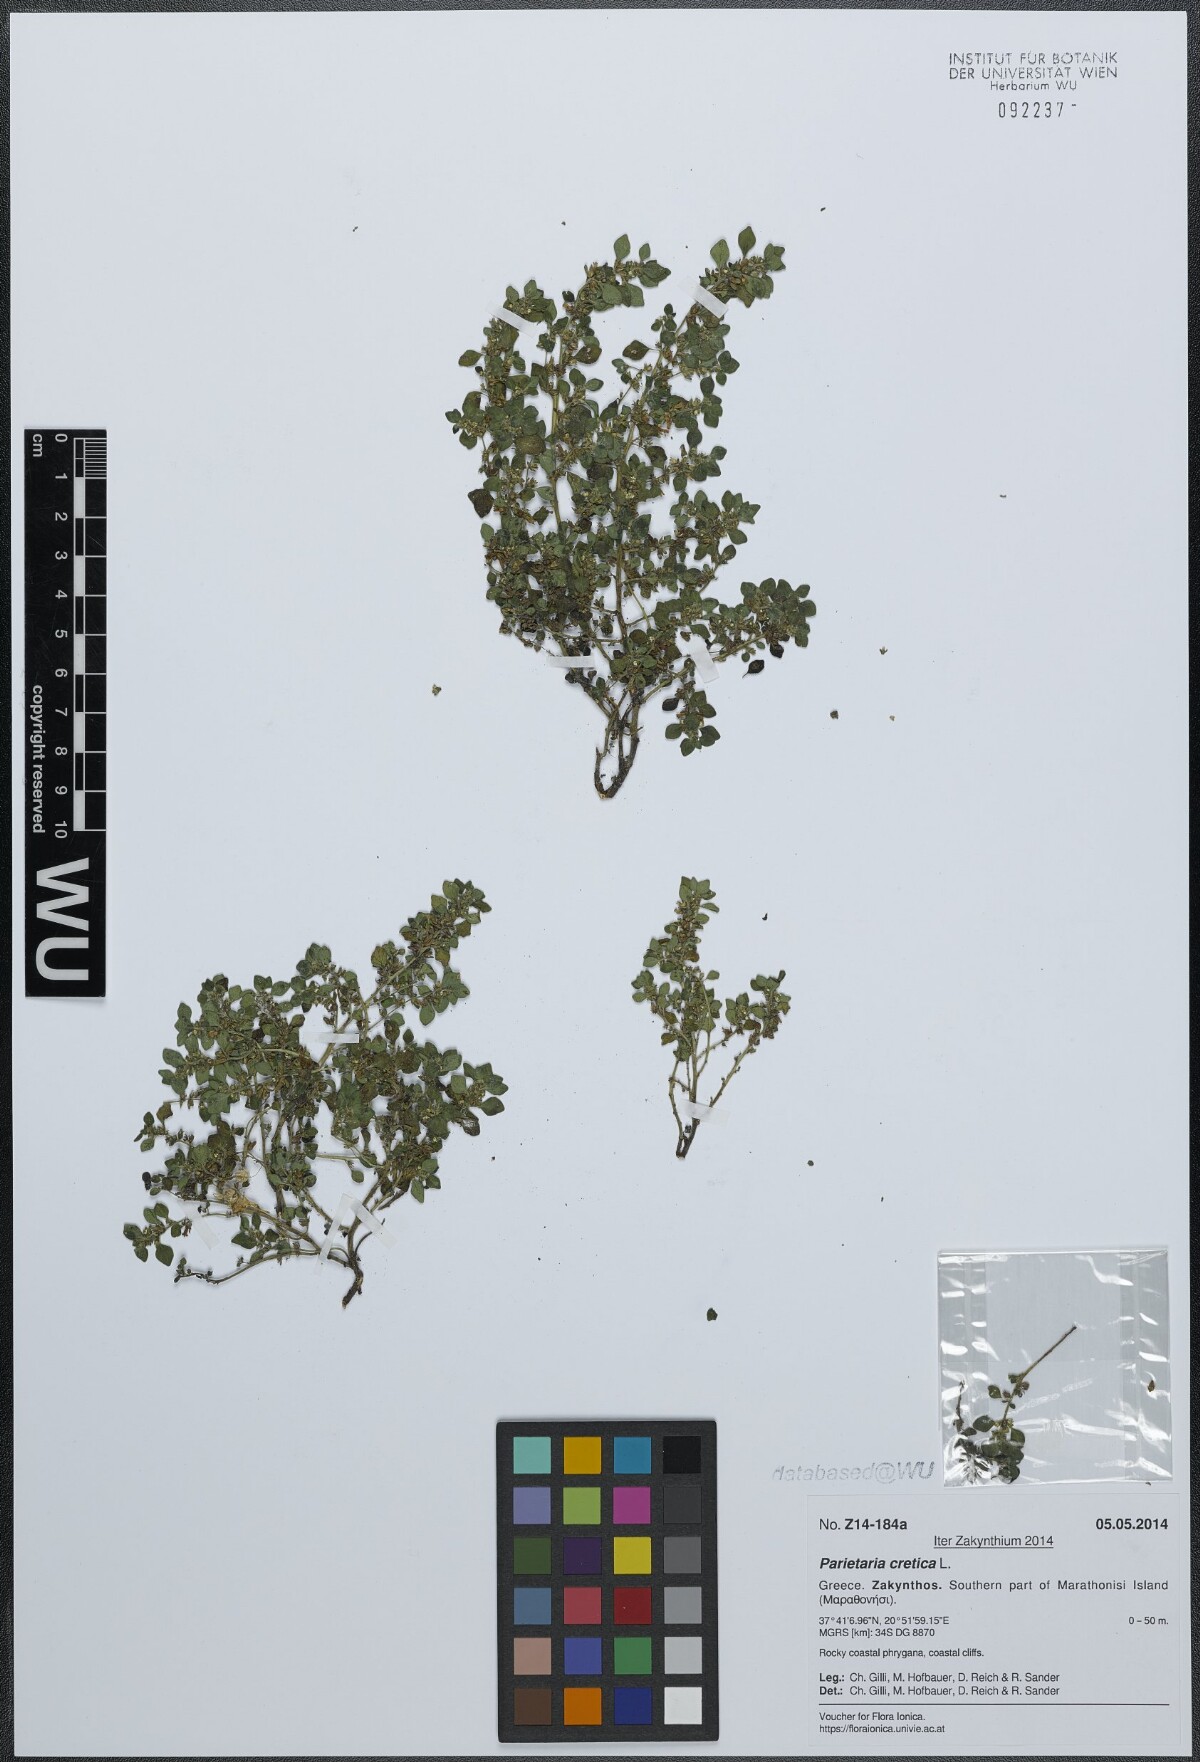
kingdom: Plantae
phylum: Tracheophyta
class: Magnoliopsida
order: Rosales
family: Urticaceae
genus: Parietaria
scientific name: Parietaria cretica
